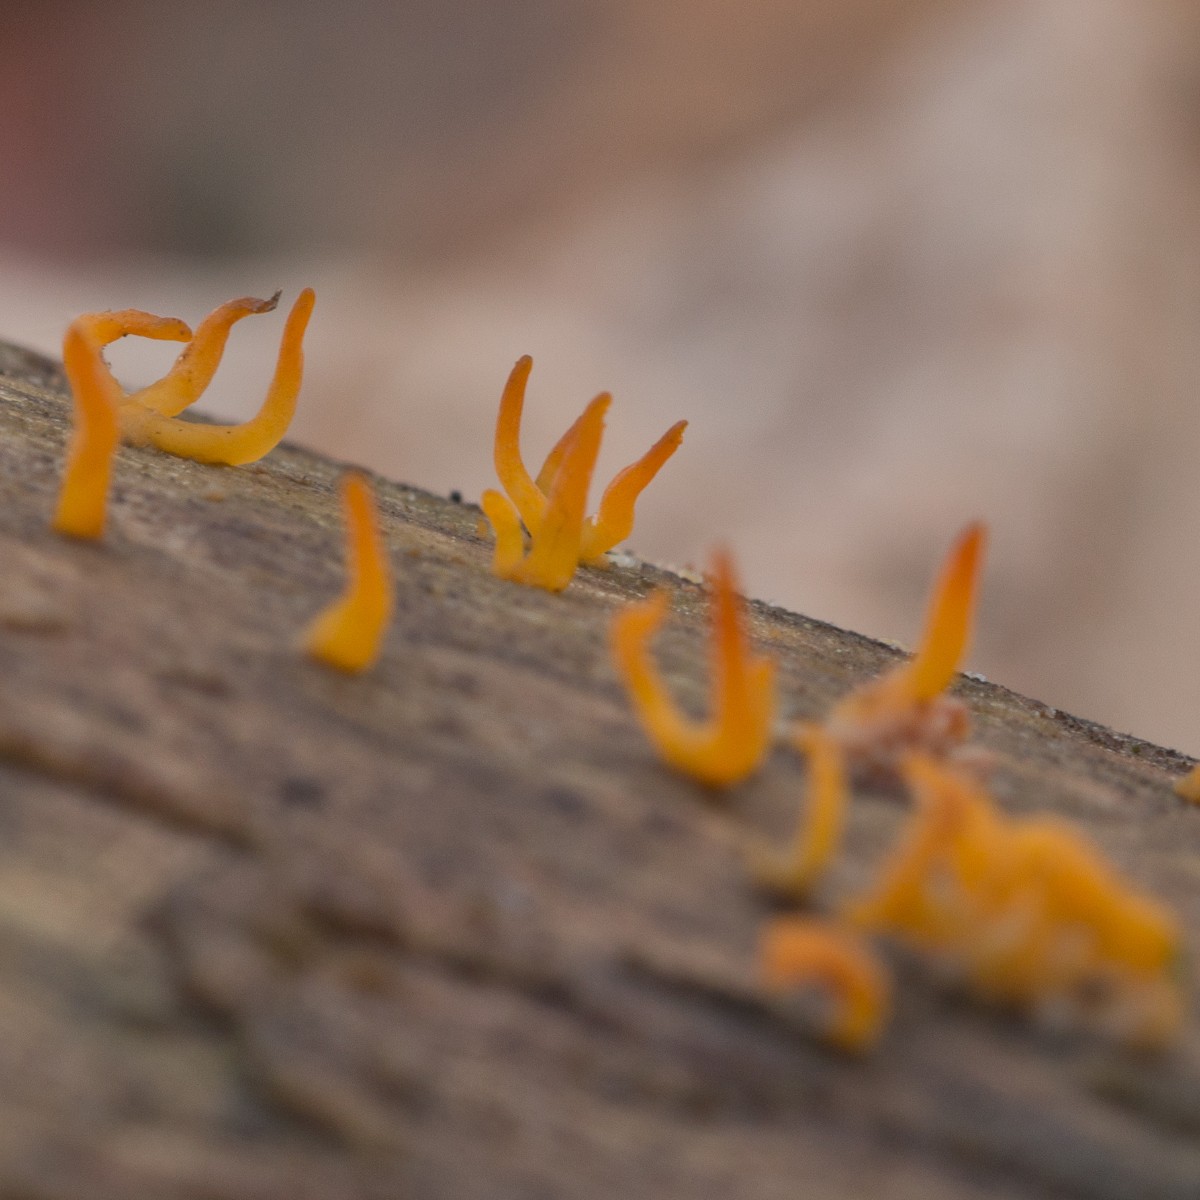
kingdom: Fungi
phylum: Basidiomycota
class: Dacrymycetes
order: Dacrymycetales
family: Dacrymycetaceae
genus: Calocera
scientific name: Calocera cornea
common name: liden guldgaffel
